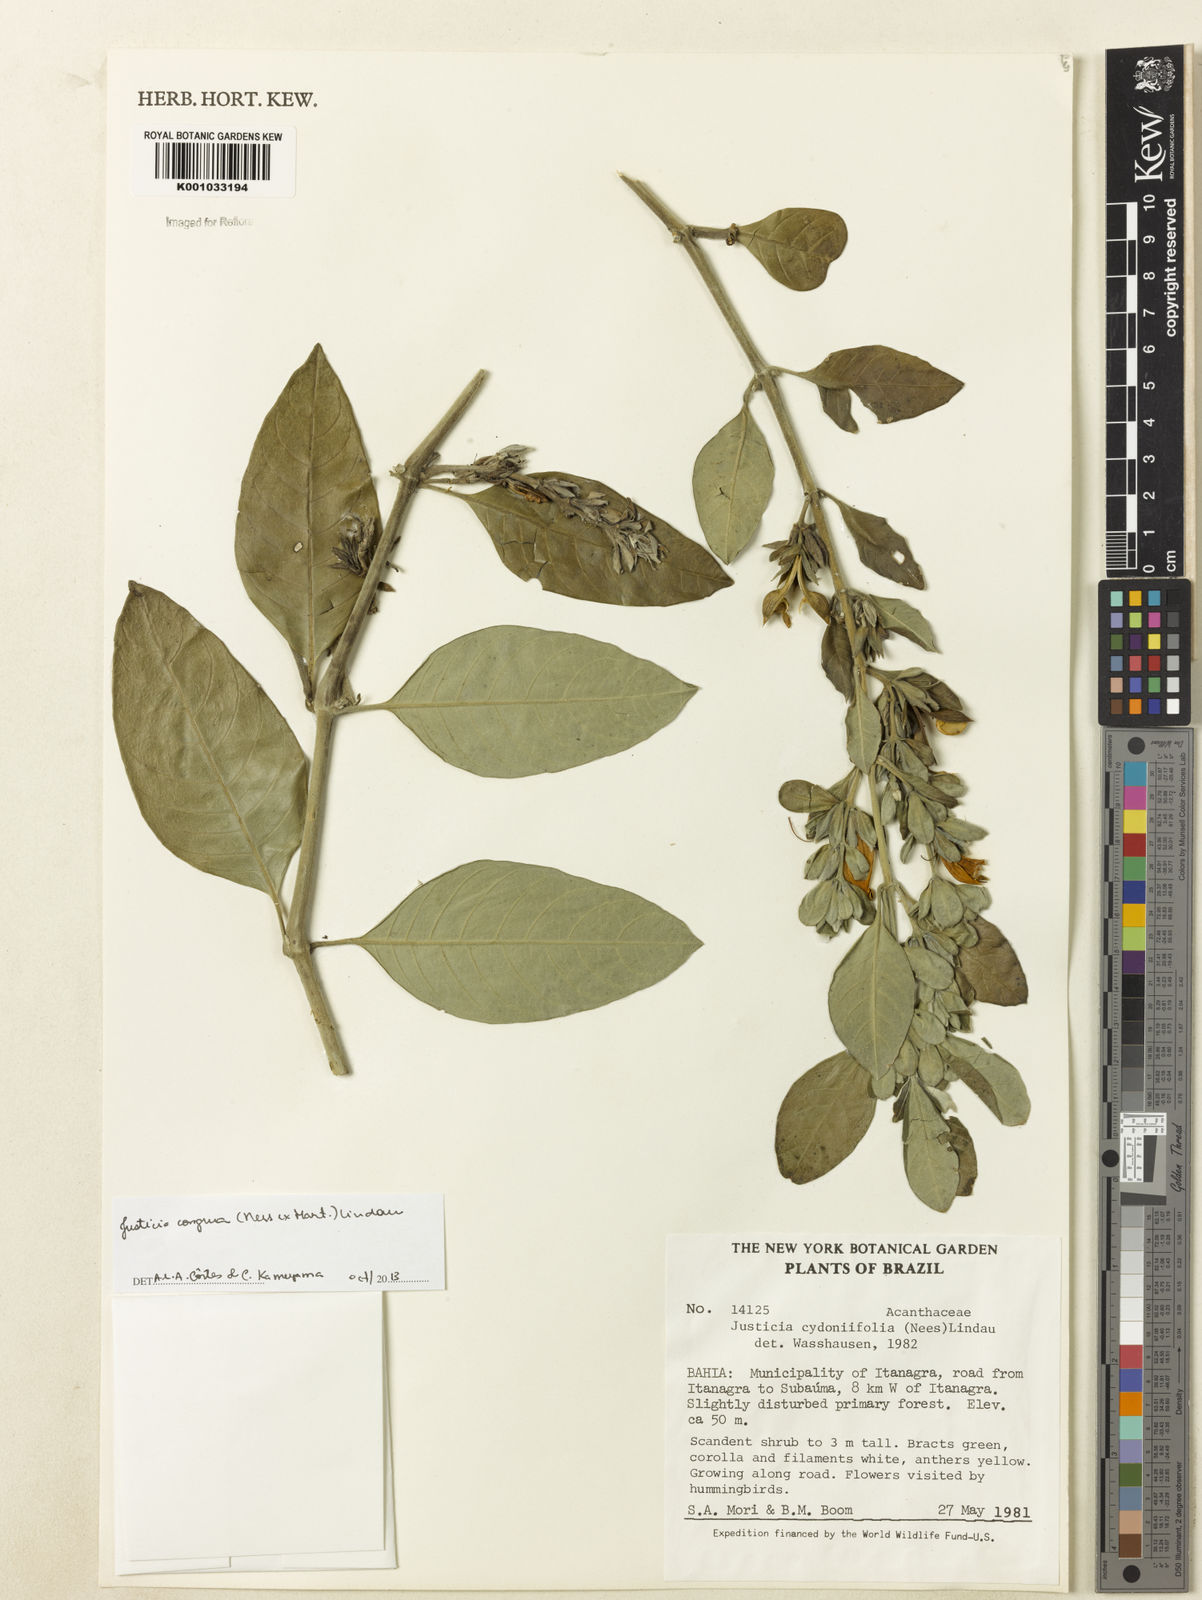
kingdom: Plantae
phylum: Tracheophyta
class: Magnoliopsida
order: Lamiales
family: Acanthaceae
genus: Justicia
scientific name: Justicia congrua
